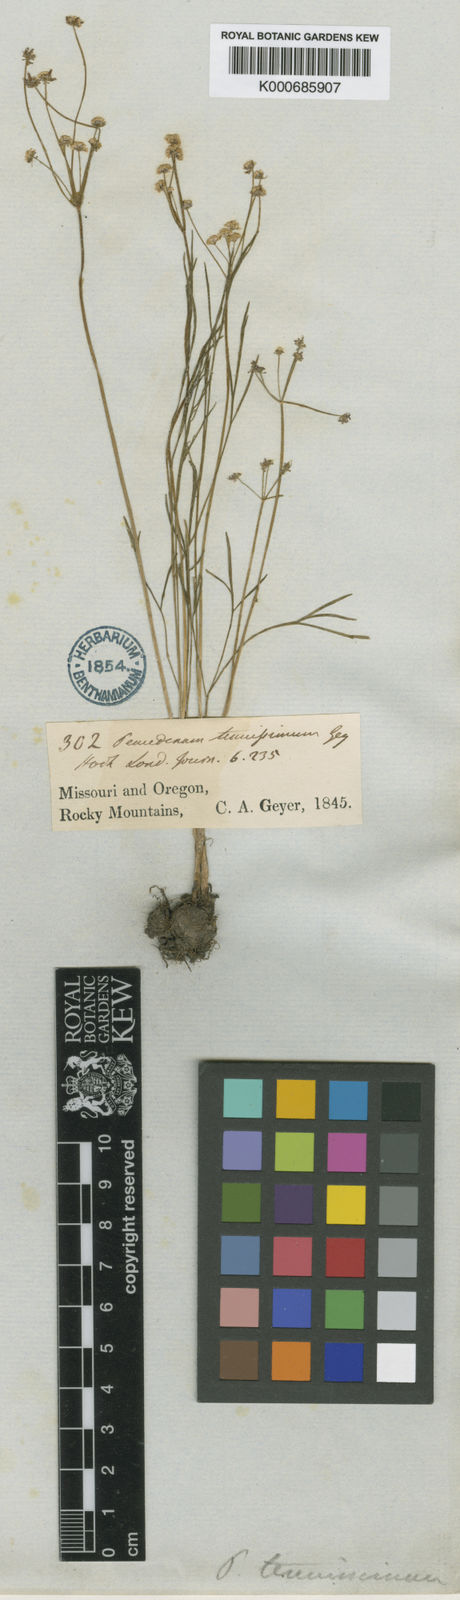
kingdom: Plantae
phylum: Tracheophyta
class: Magnoliopsida
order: Apiales
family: Apiaceae
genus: Lomatium
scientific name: Lomatium tenuissimum
